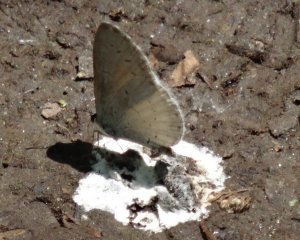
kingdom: Animalia
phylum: Arthropoda
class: Insecta
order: Lepidoptera
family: Lycaenidae
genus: Celastrina
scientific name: Celastrina serotina
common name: Cherry Gall Azure
